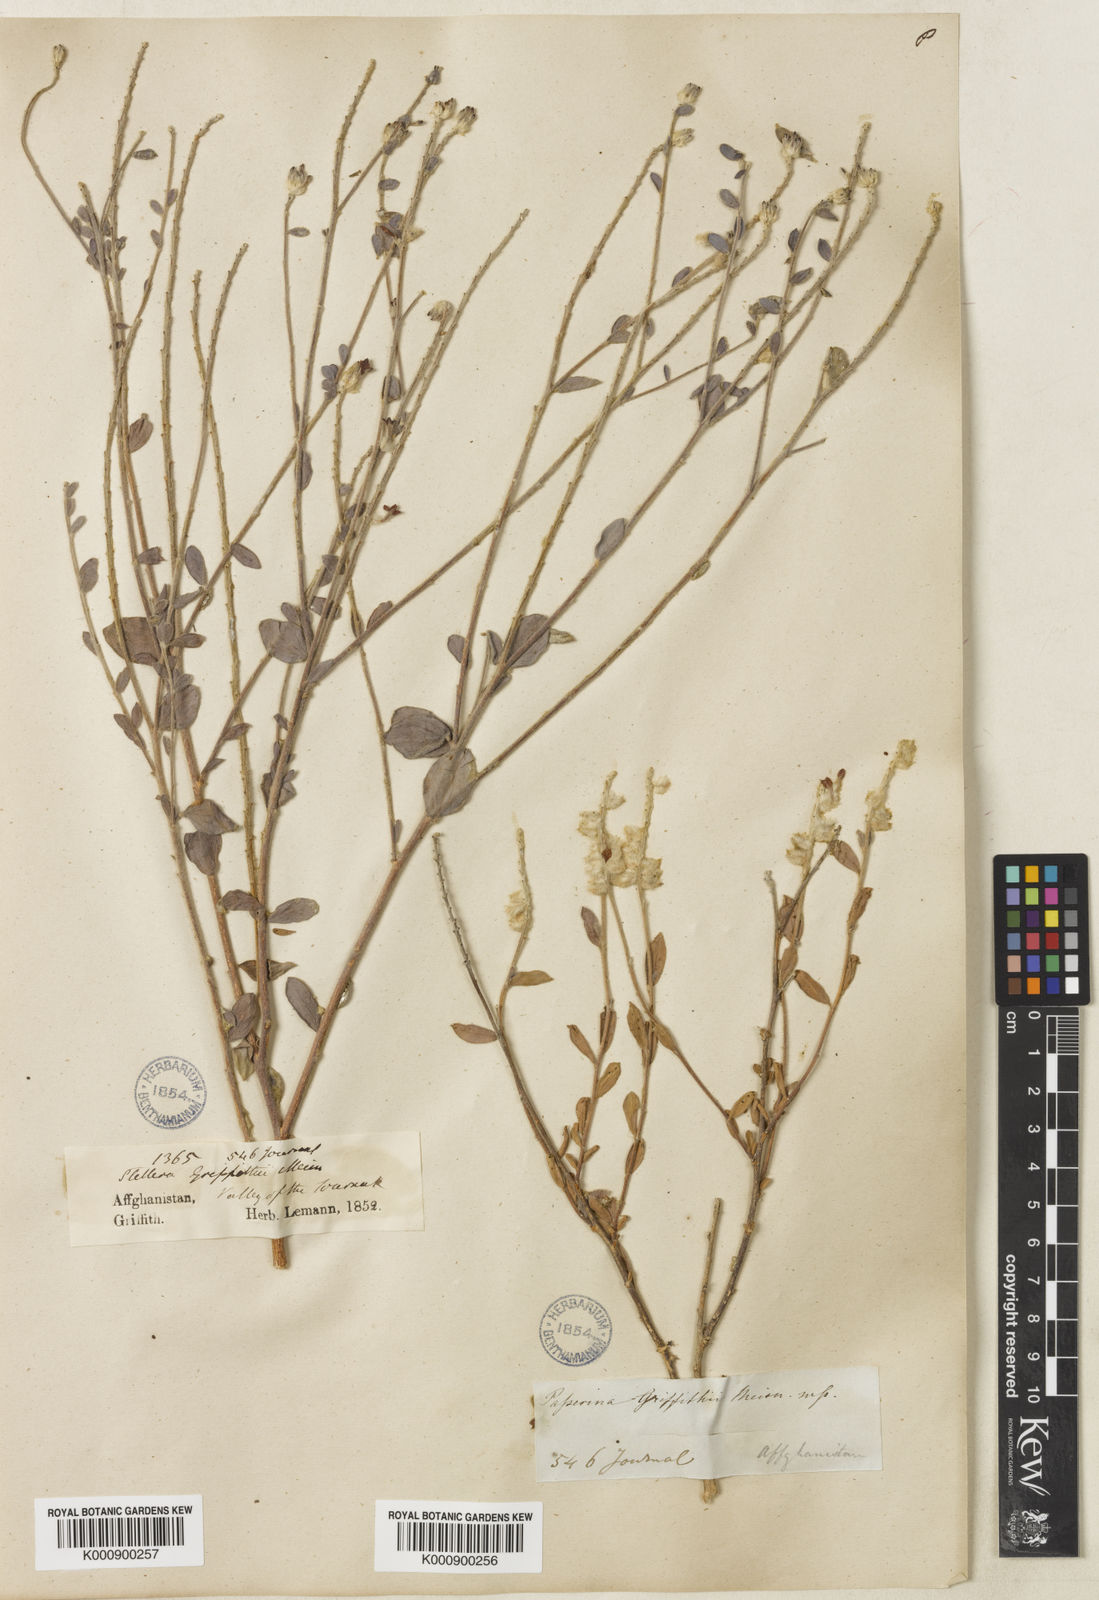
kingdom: Plantae
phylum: Tracheophyta
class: Magnoliopsida
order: Malvales
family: Thymelaeaceae
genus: Diarthron
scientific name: Diarthron lessertii
